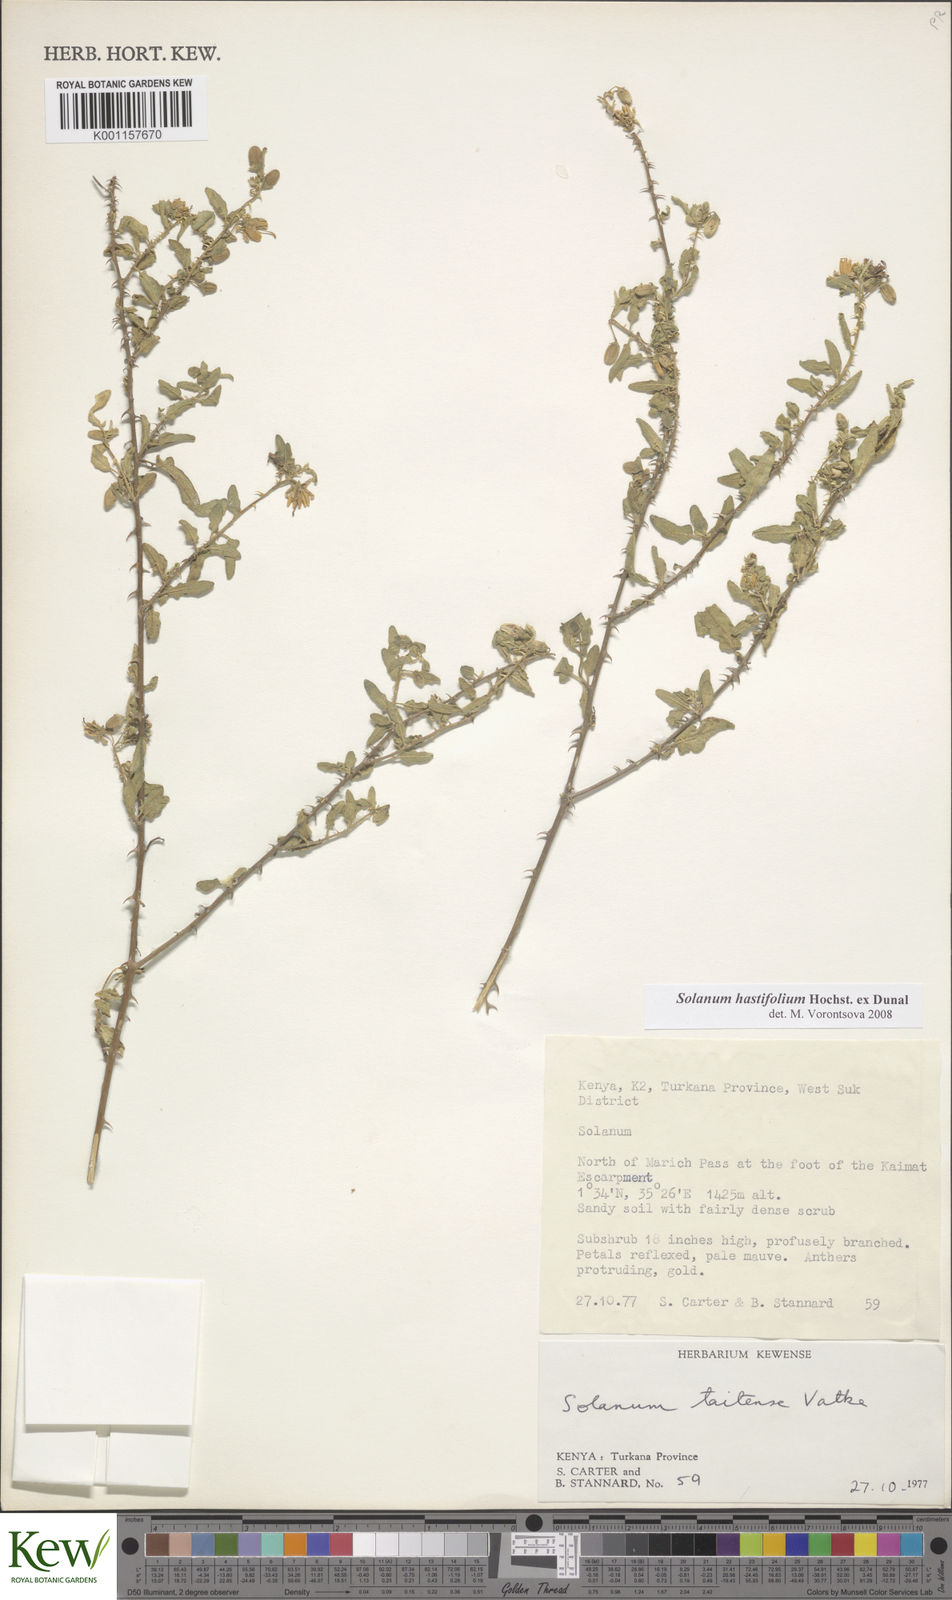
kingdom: Plantae
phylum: Tracheophyta
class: Magnoliopsida
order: Solanales
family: Solanaceae
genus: Solanum
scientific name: Solanum hastifolium
